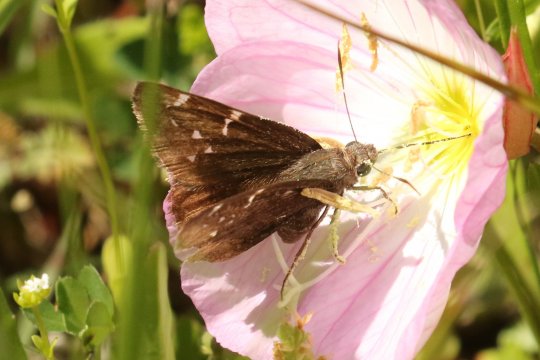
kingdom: Animalia
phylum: Arthropoda
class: Insecta
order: Lepidoptera
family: Hesperiidae
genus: Autochton
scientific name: Autochton
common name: Northern Cloudywing
